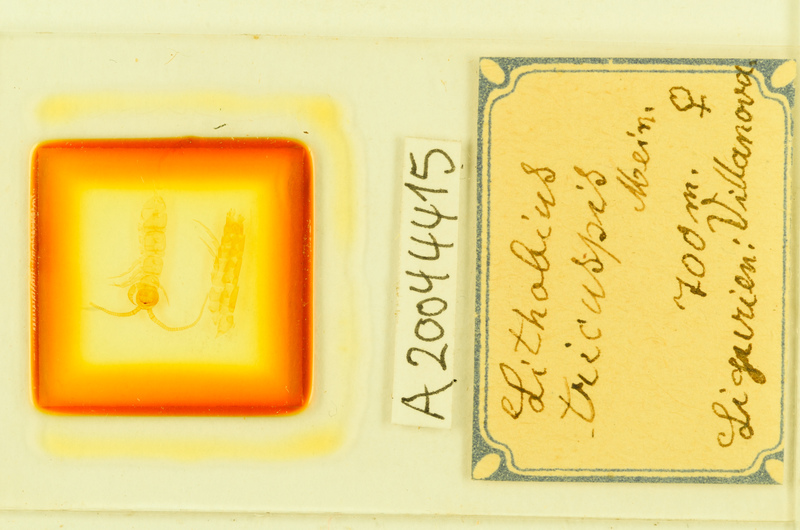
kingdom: Animalia
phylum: Arthropoda
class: Chilopoda
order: Lithobiomorpha
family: Lithobiidae
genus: Lithobius
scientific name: Lithobius tricuspis
